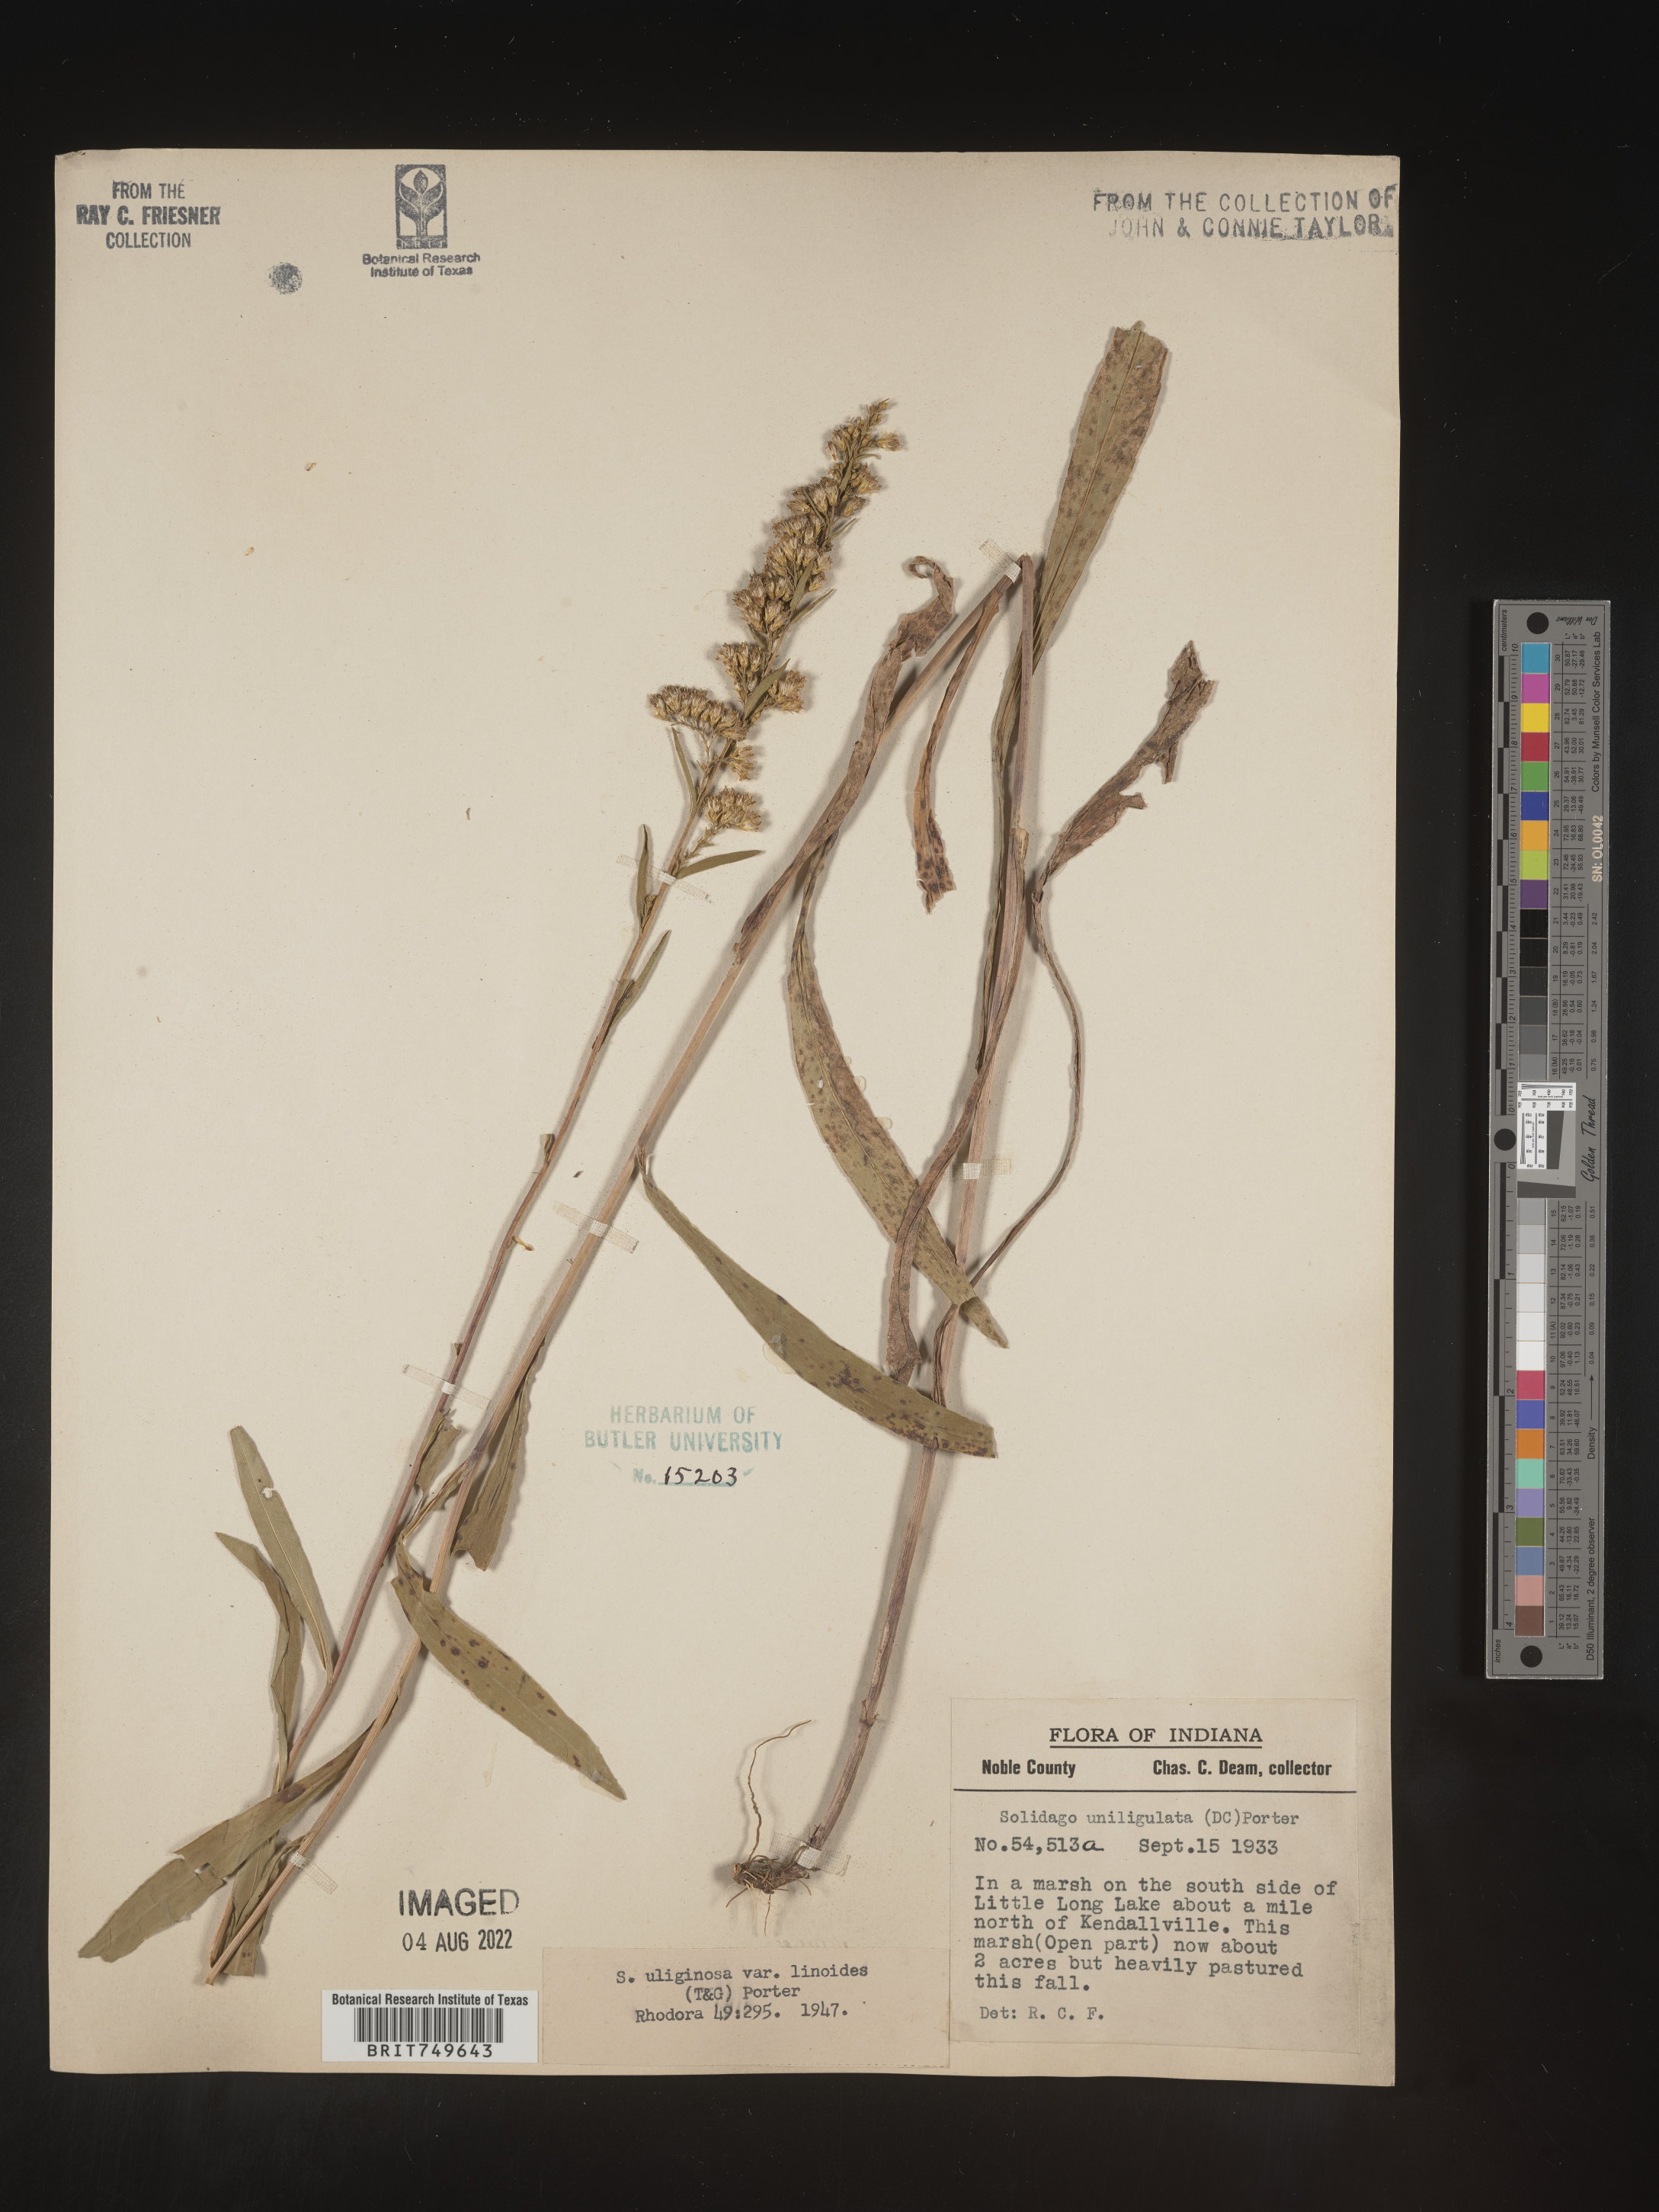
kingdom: Plantae
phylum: Tracheophyta
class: Magnoliopsida
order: Asterales
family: Asteraceae
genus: Solidago
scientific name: Solidago uliginosa
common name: Bog goldenrod
